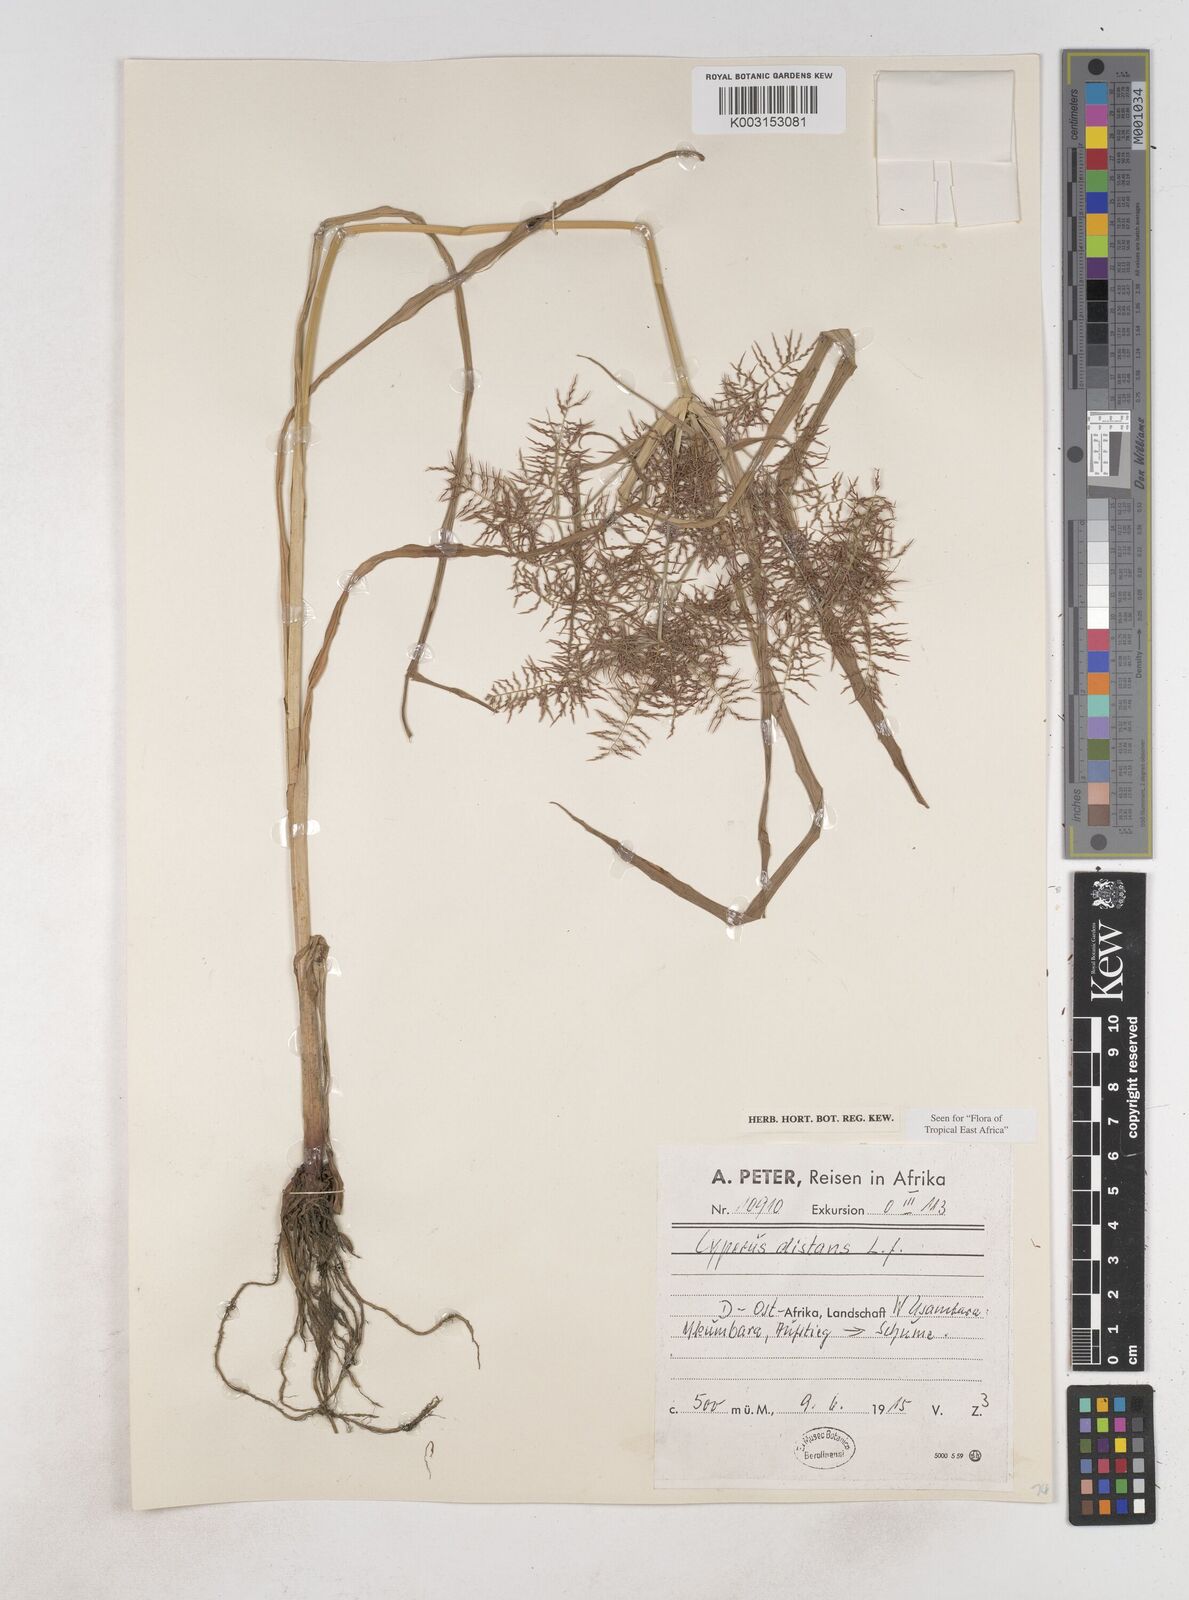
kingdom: Plantae
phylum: Tracheophyta
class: Liliopsida
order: Poales
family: Cyperaceae
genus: Cyperus
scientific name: Cyperus distans
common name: Slender cyperus
